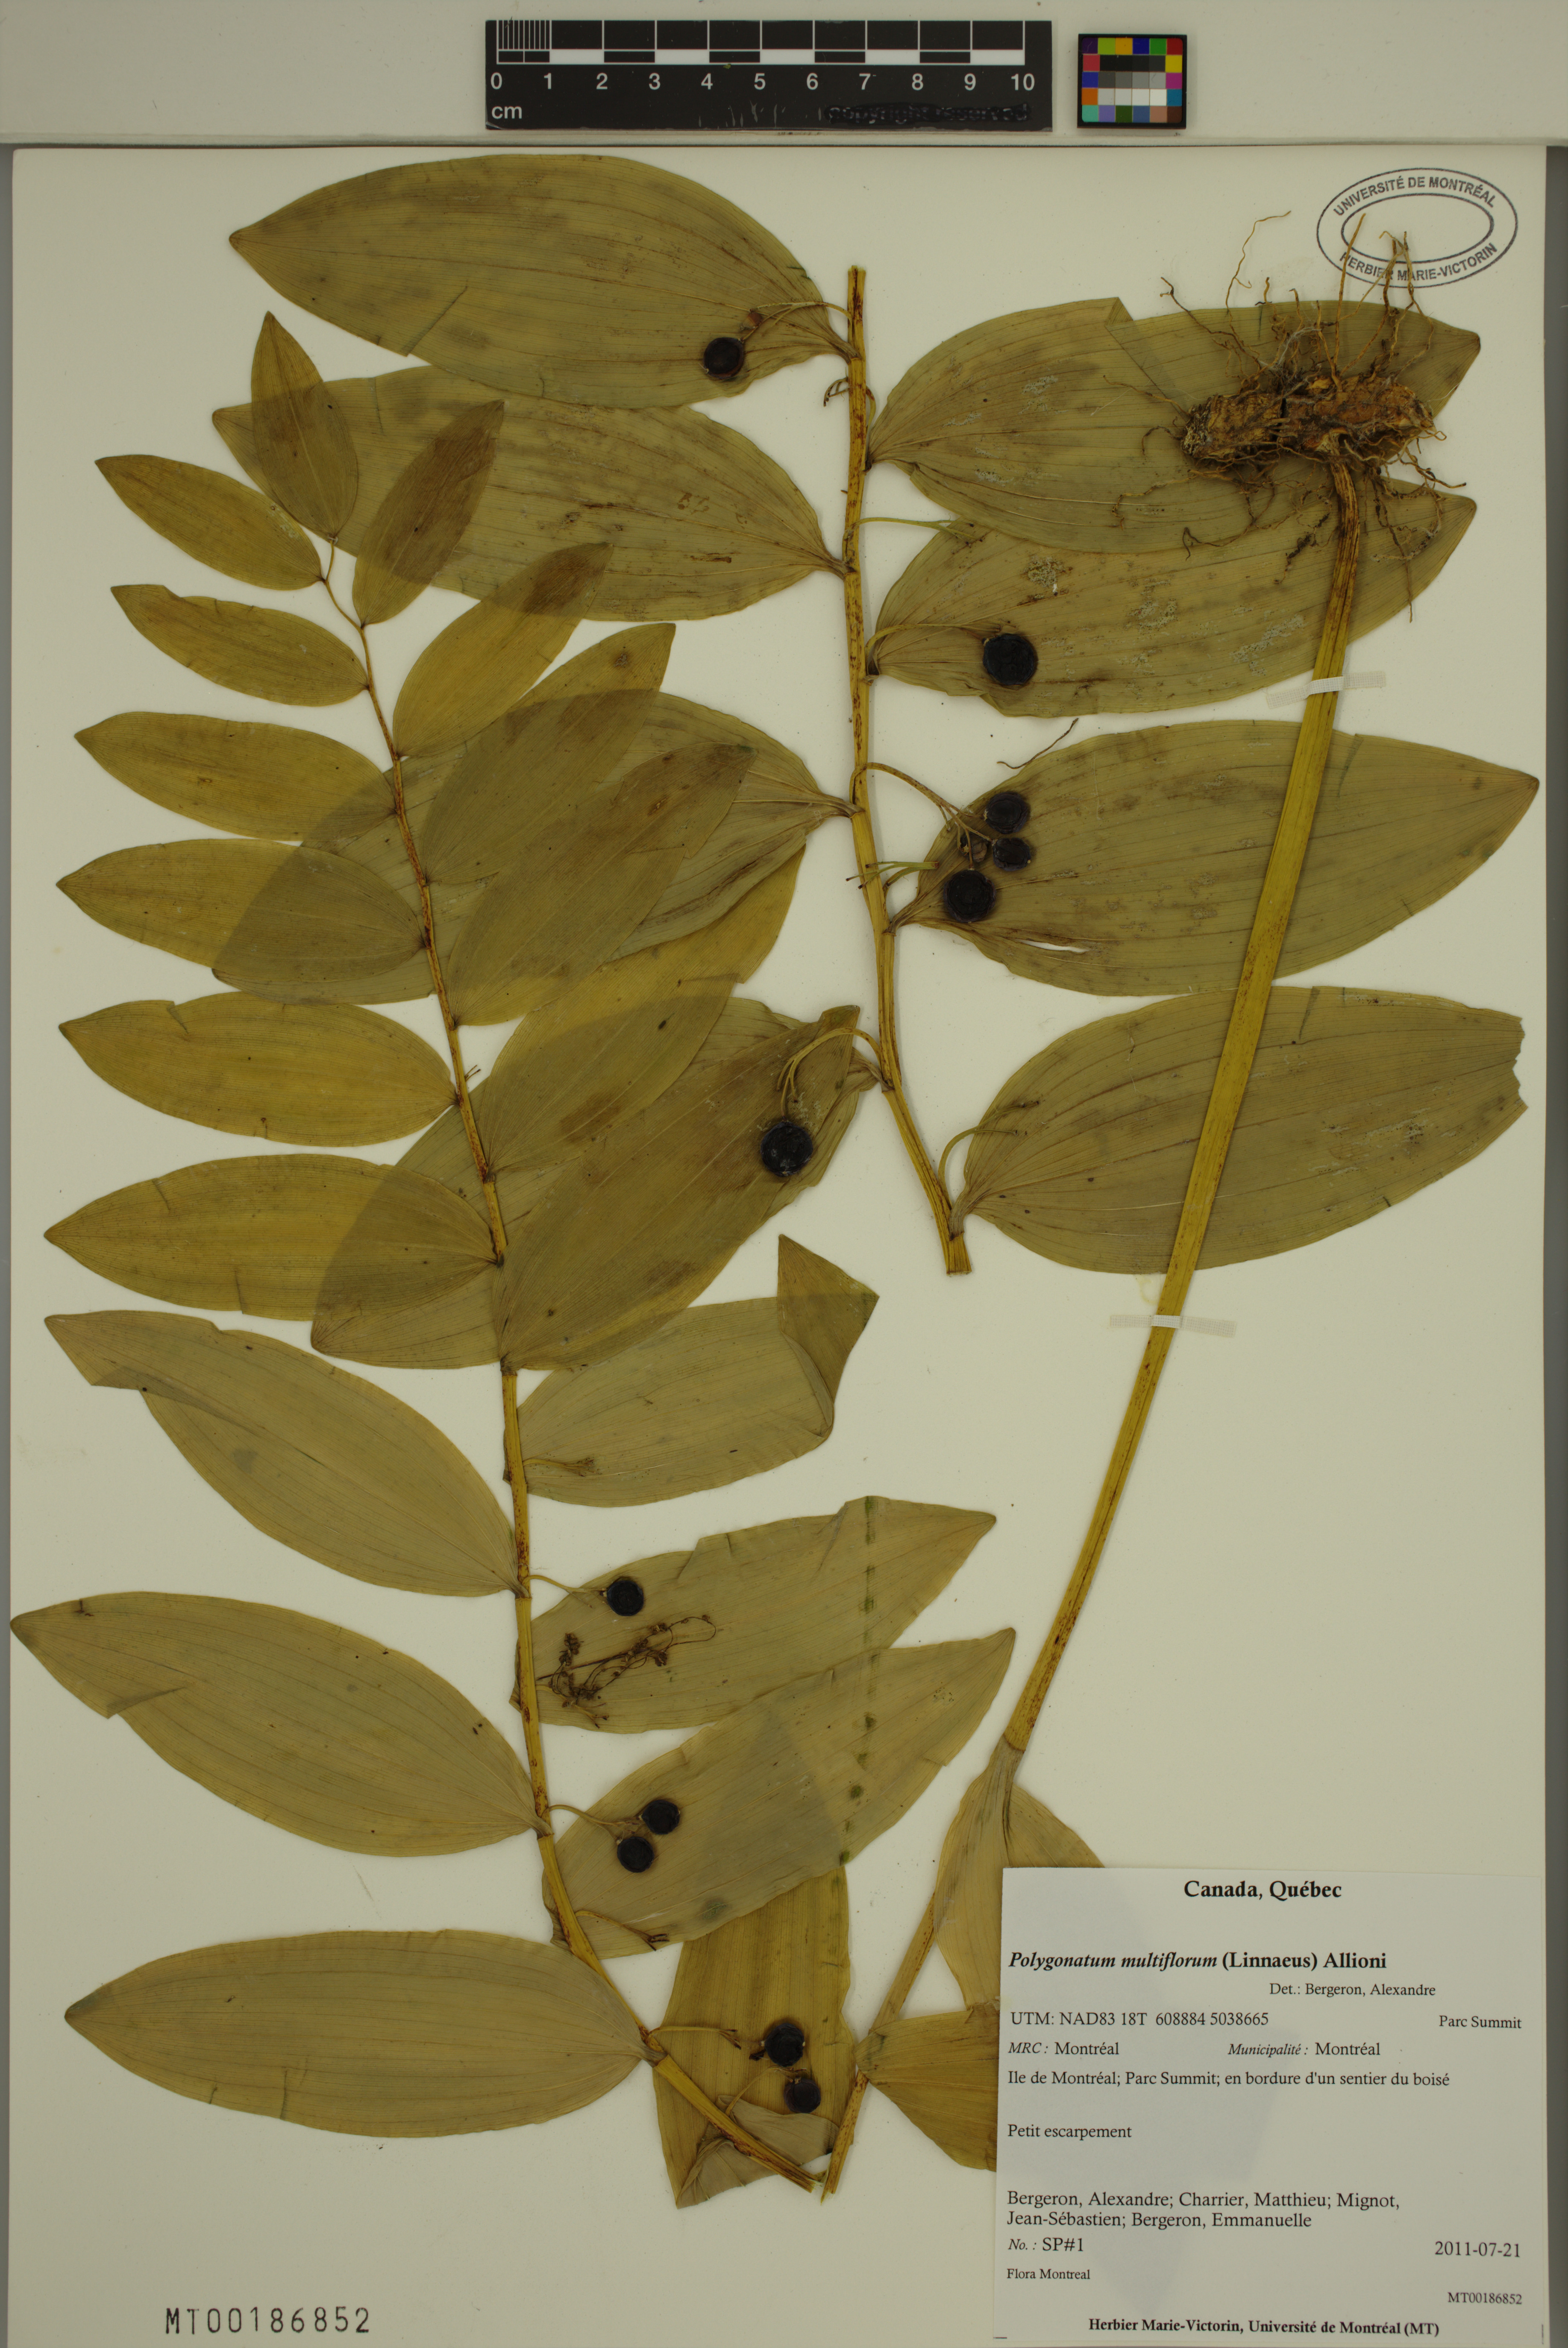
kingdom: Plantae
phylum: Tracheophyta
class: Liliopsida
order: Asparagales
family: Asparagaceae
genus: Polygonatum
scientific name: Polygonatum multiflorum
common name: Solomon's-seal
